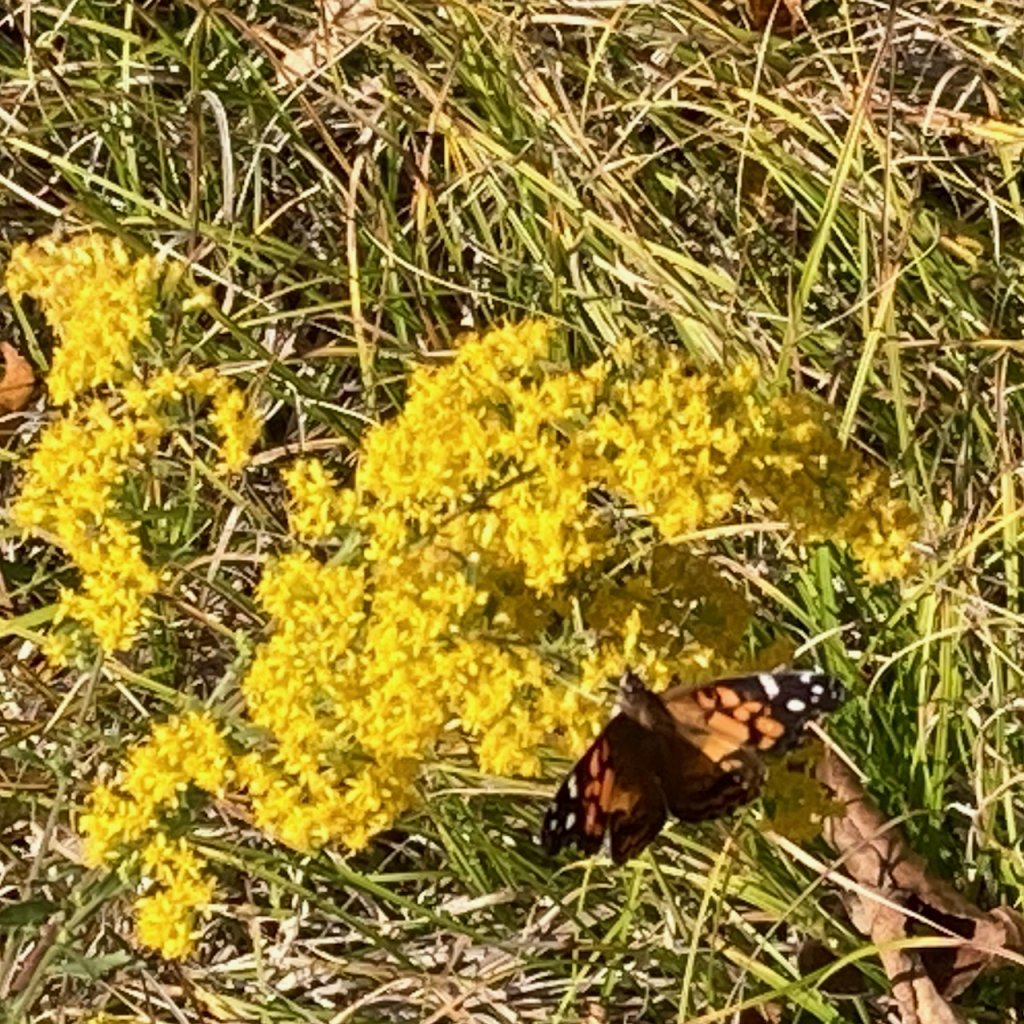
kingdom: Animalia
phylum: Arthropoda
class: Insecta
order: Lepidoptera
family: Nymphalidae
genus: Vanessa
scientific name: Vanessa virginiensis
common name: American Lady
